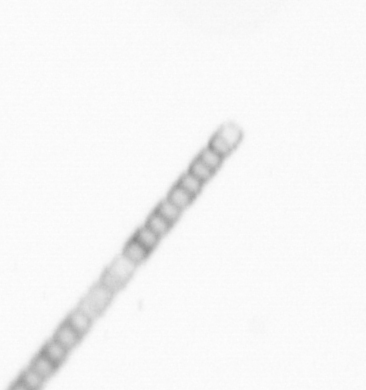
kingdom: Chromista
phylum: Ochrophyta
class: Bacillariophyceae
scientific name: Bacillariophyceae
